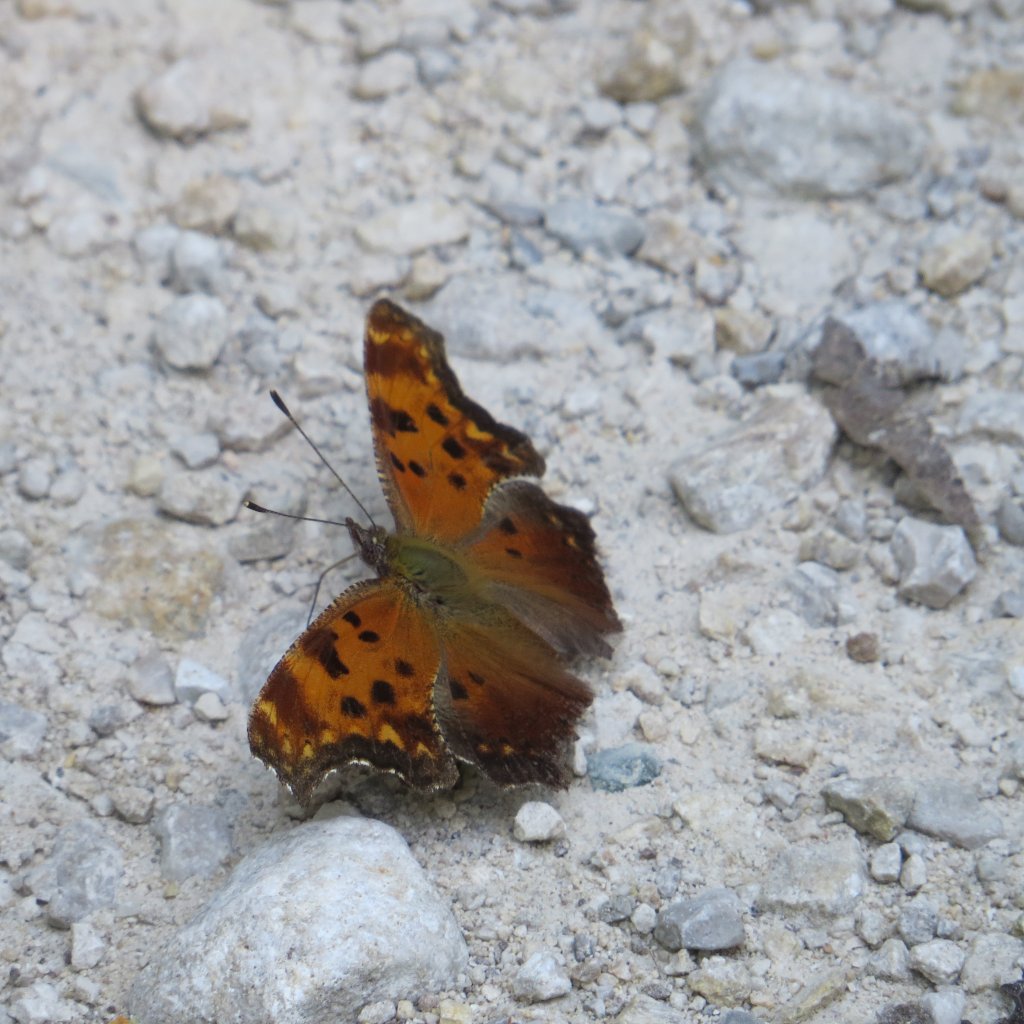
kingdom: Animalia
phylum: Arthropoda
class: Insecta
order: Lepidoptera
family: Nymphalidae
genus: Polygonia
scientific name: Polygonia progne
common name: Gray Comma
